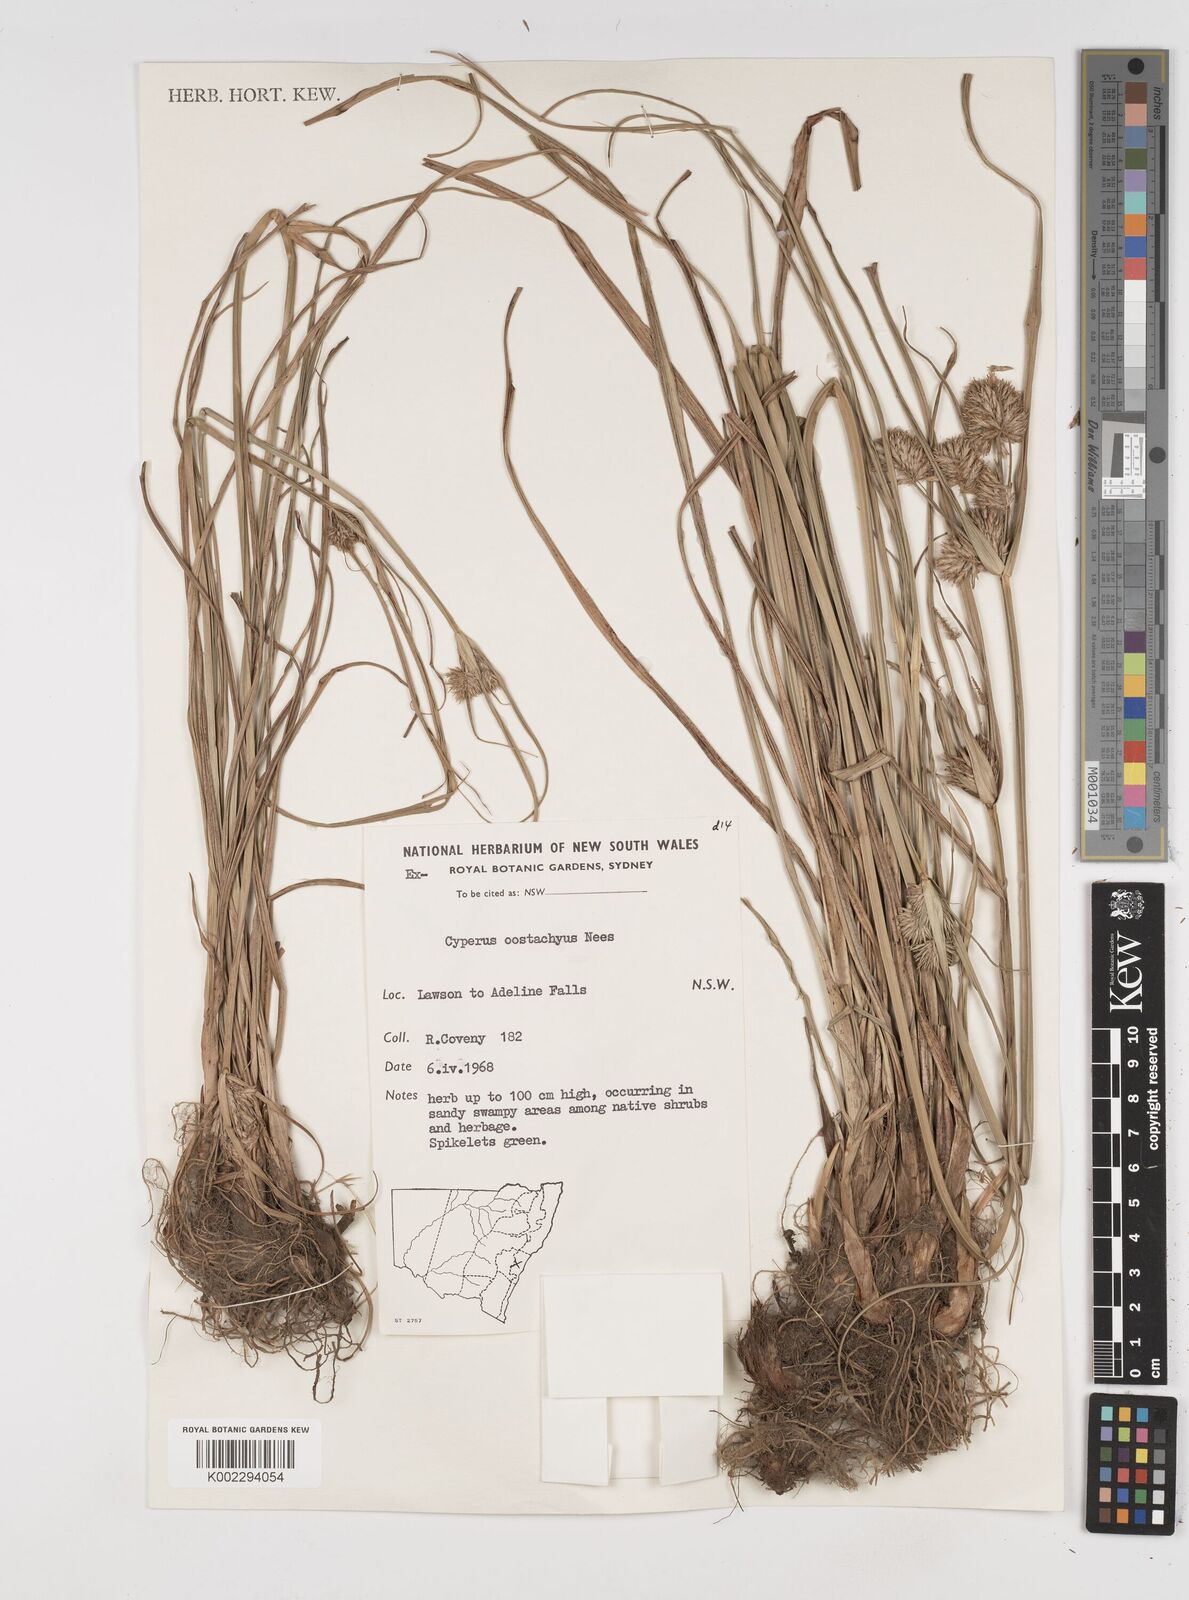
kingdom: Plantae
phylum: Tracheophyta
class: Liliopsida
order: Poales
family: Cyperaceae
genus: Cyperus
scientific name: Cyperus rigens
